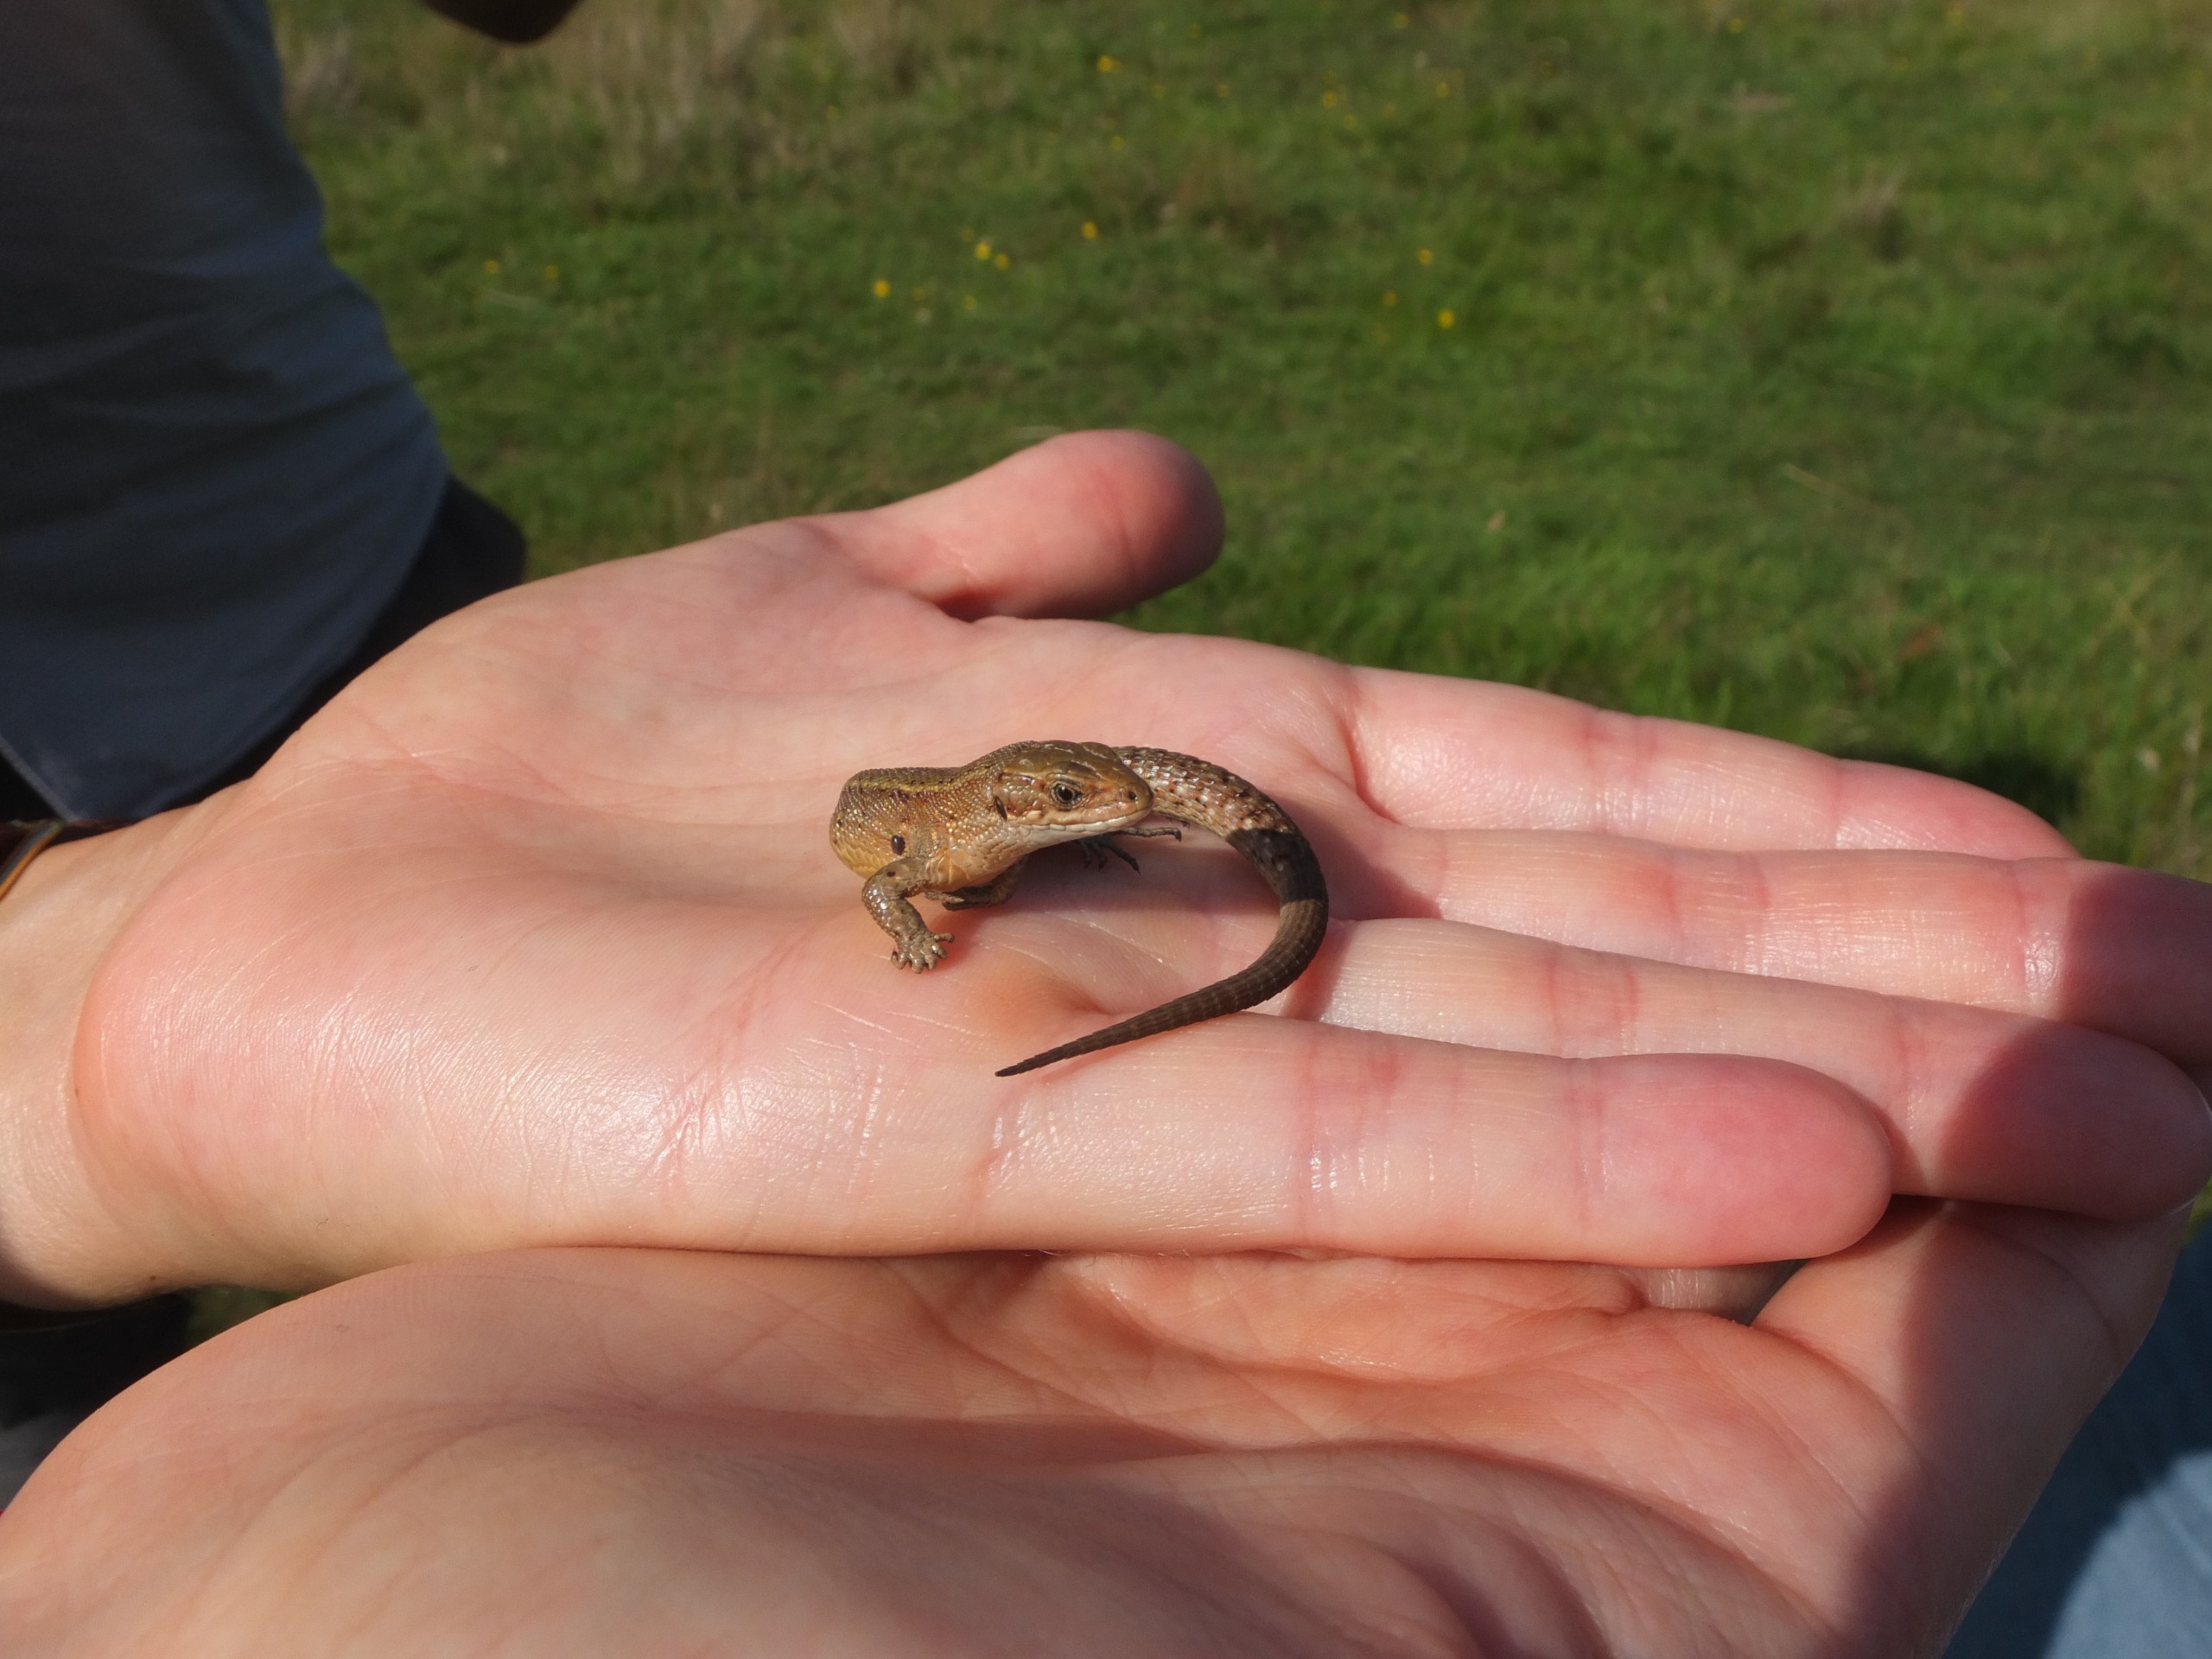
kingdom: Animalia
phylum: Chordata
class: Squamata
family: Lacertidae
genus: Zootoca
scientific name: Zootoca vivipara
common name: Skovfirben
